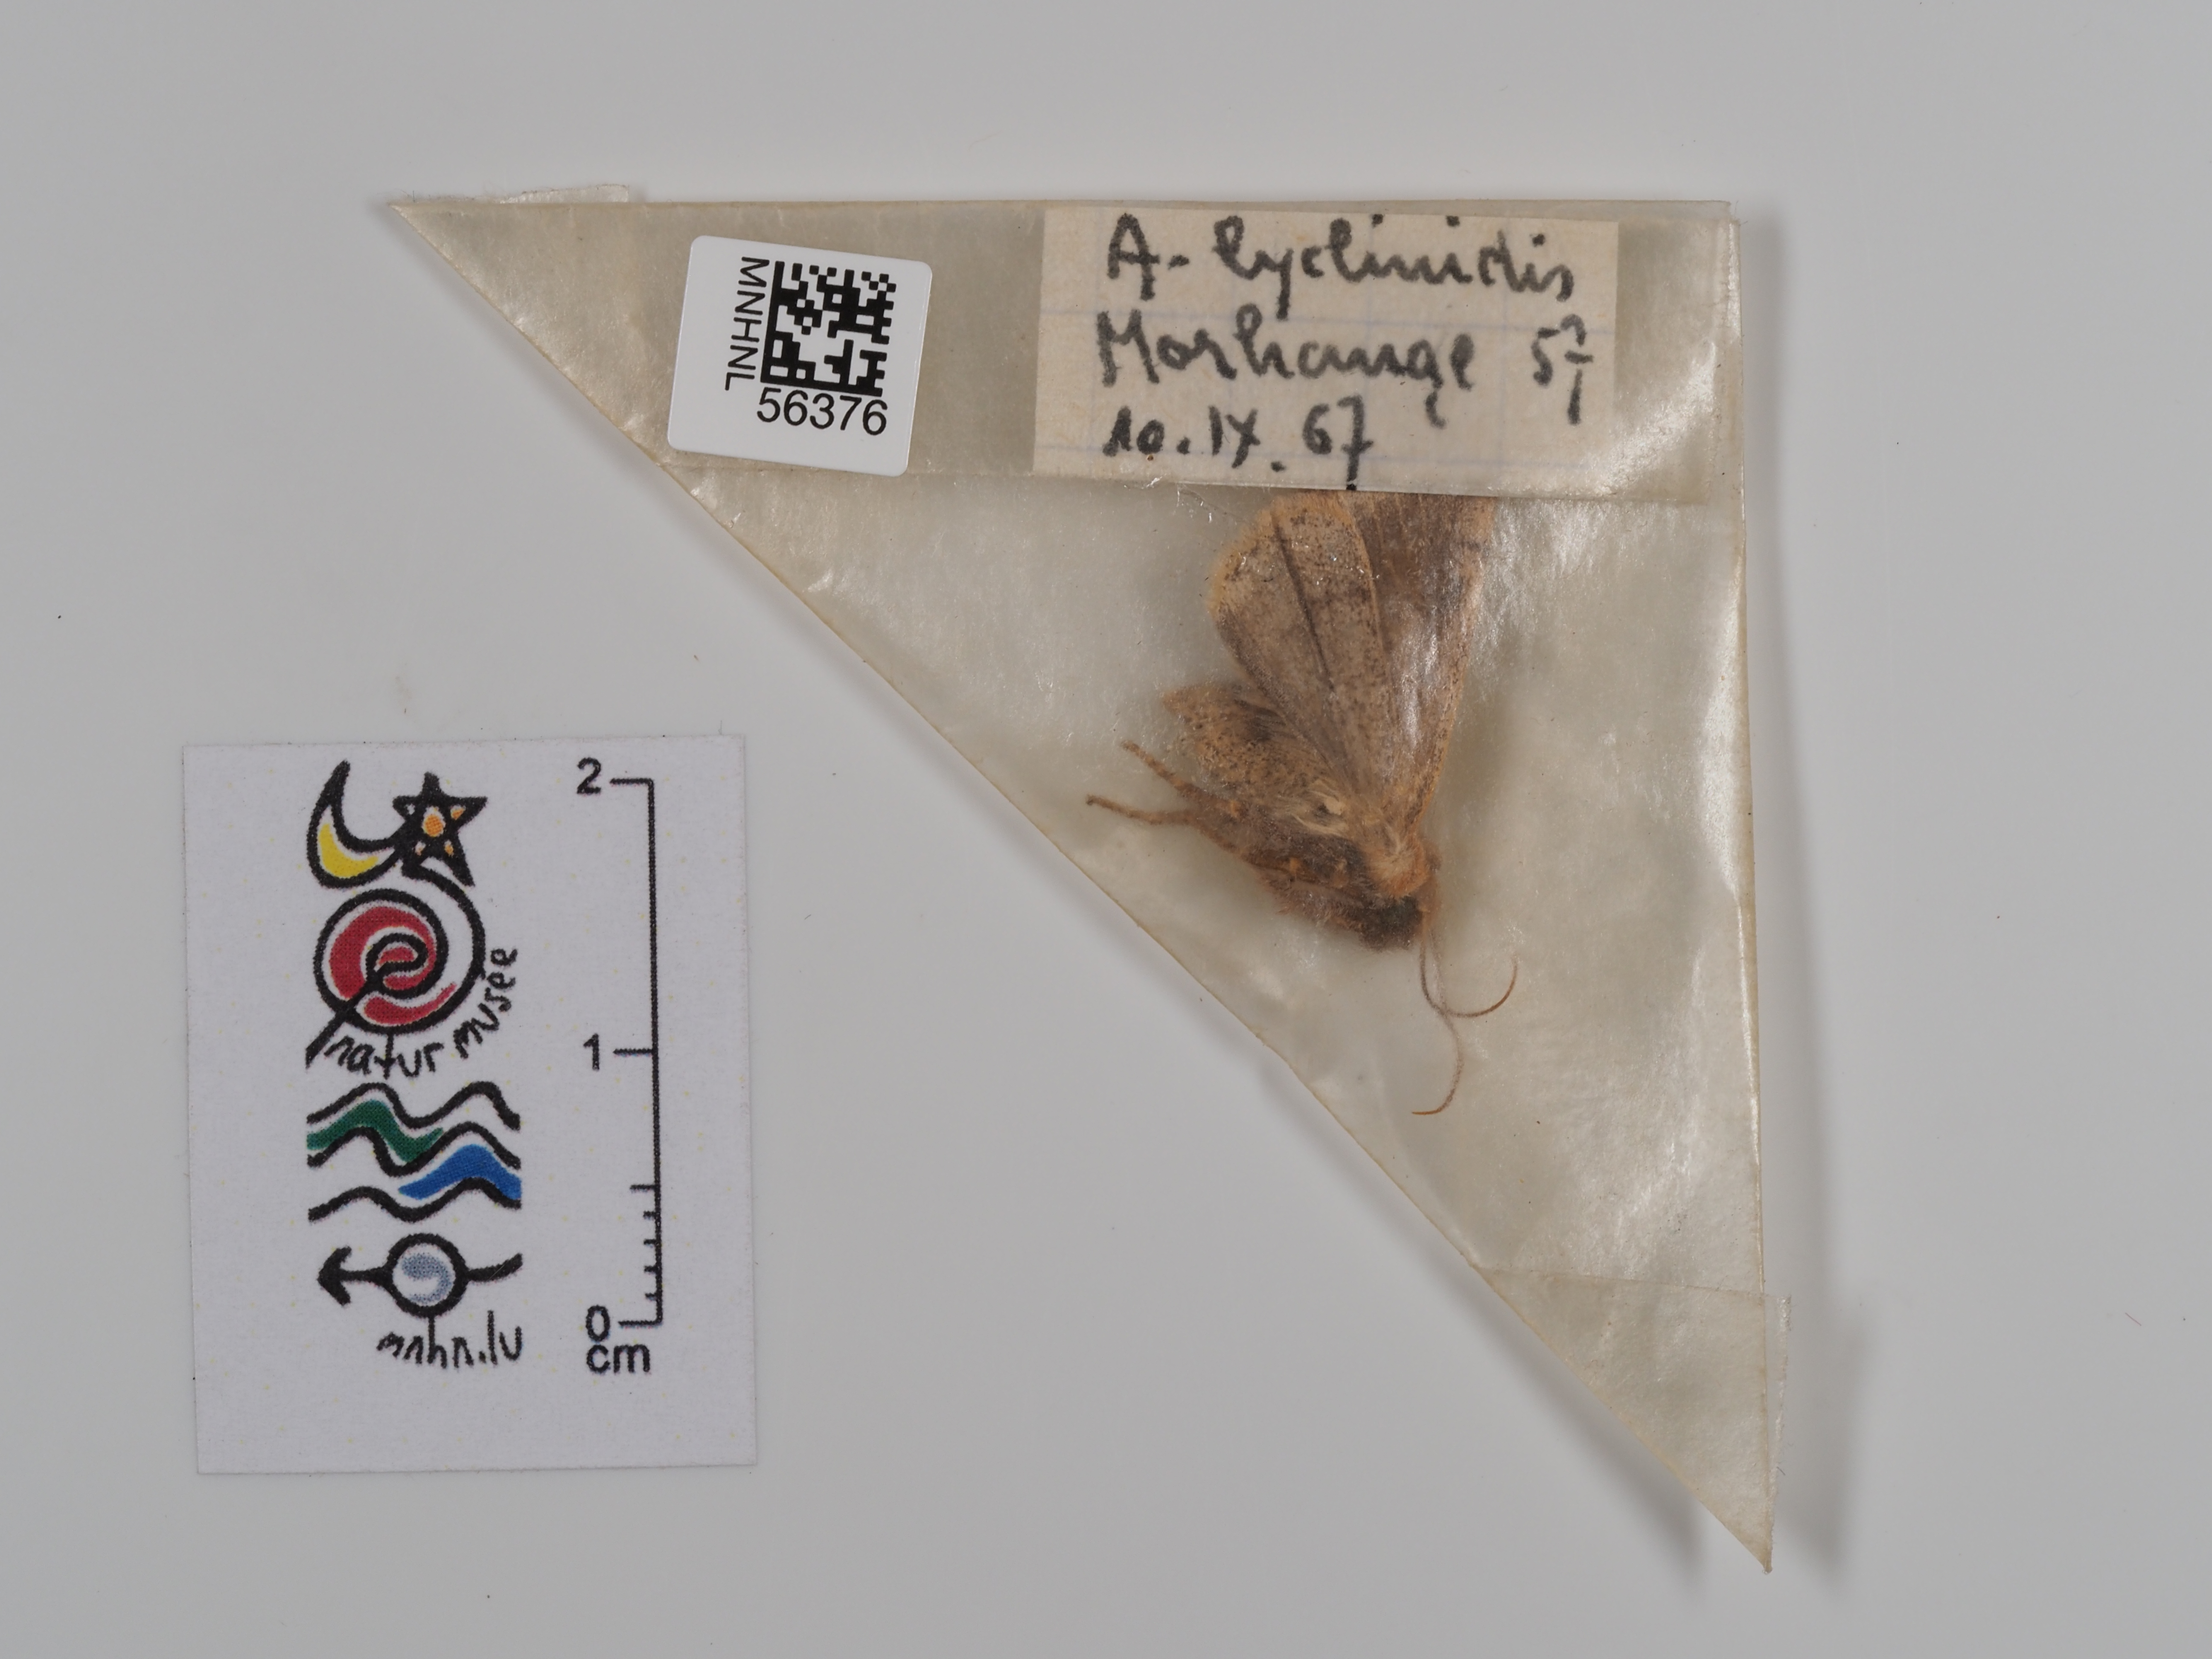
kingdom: Animalia
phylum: Arthropoda
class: Insecta
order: Lepidoptera
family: Noctuidae
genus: Agrochola
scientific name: Agrochola lychnidis
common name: Beaded chestnut
